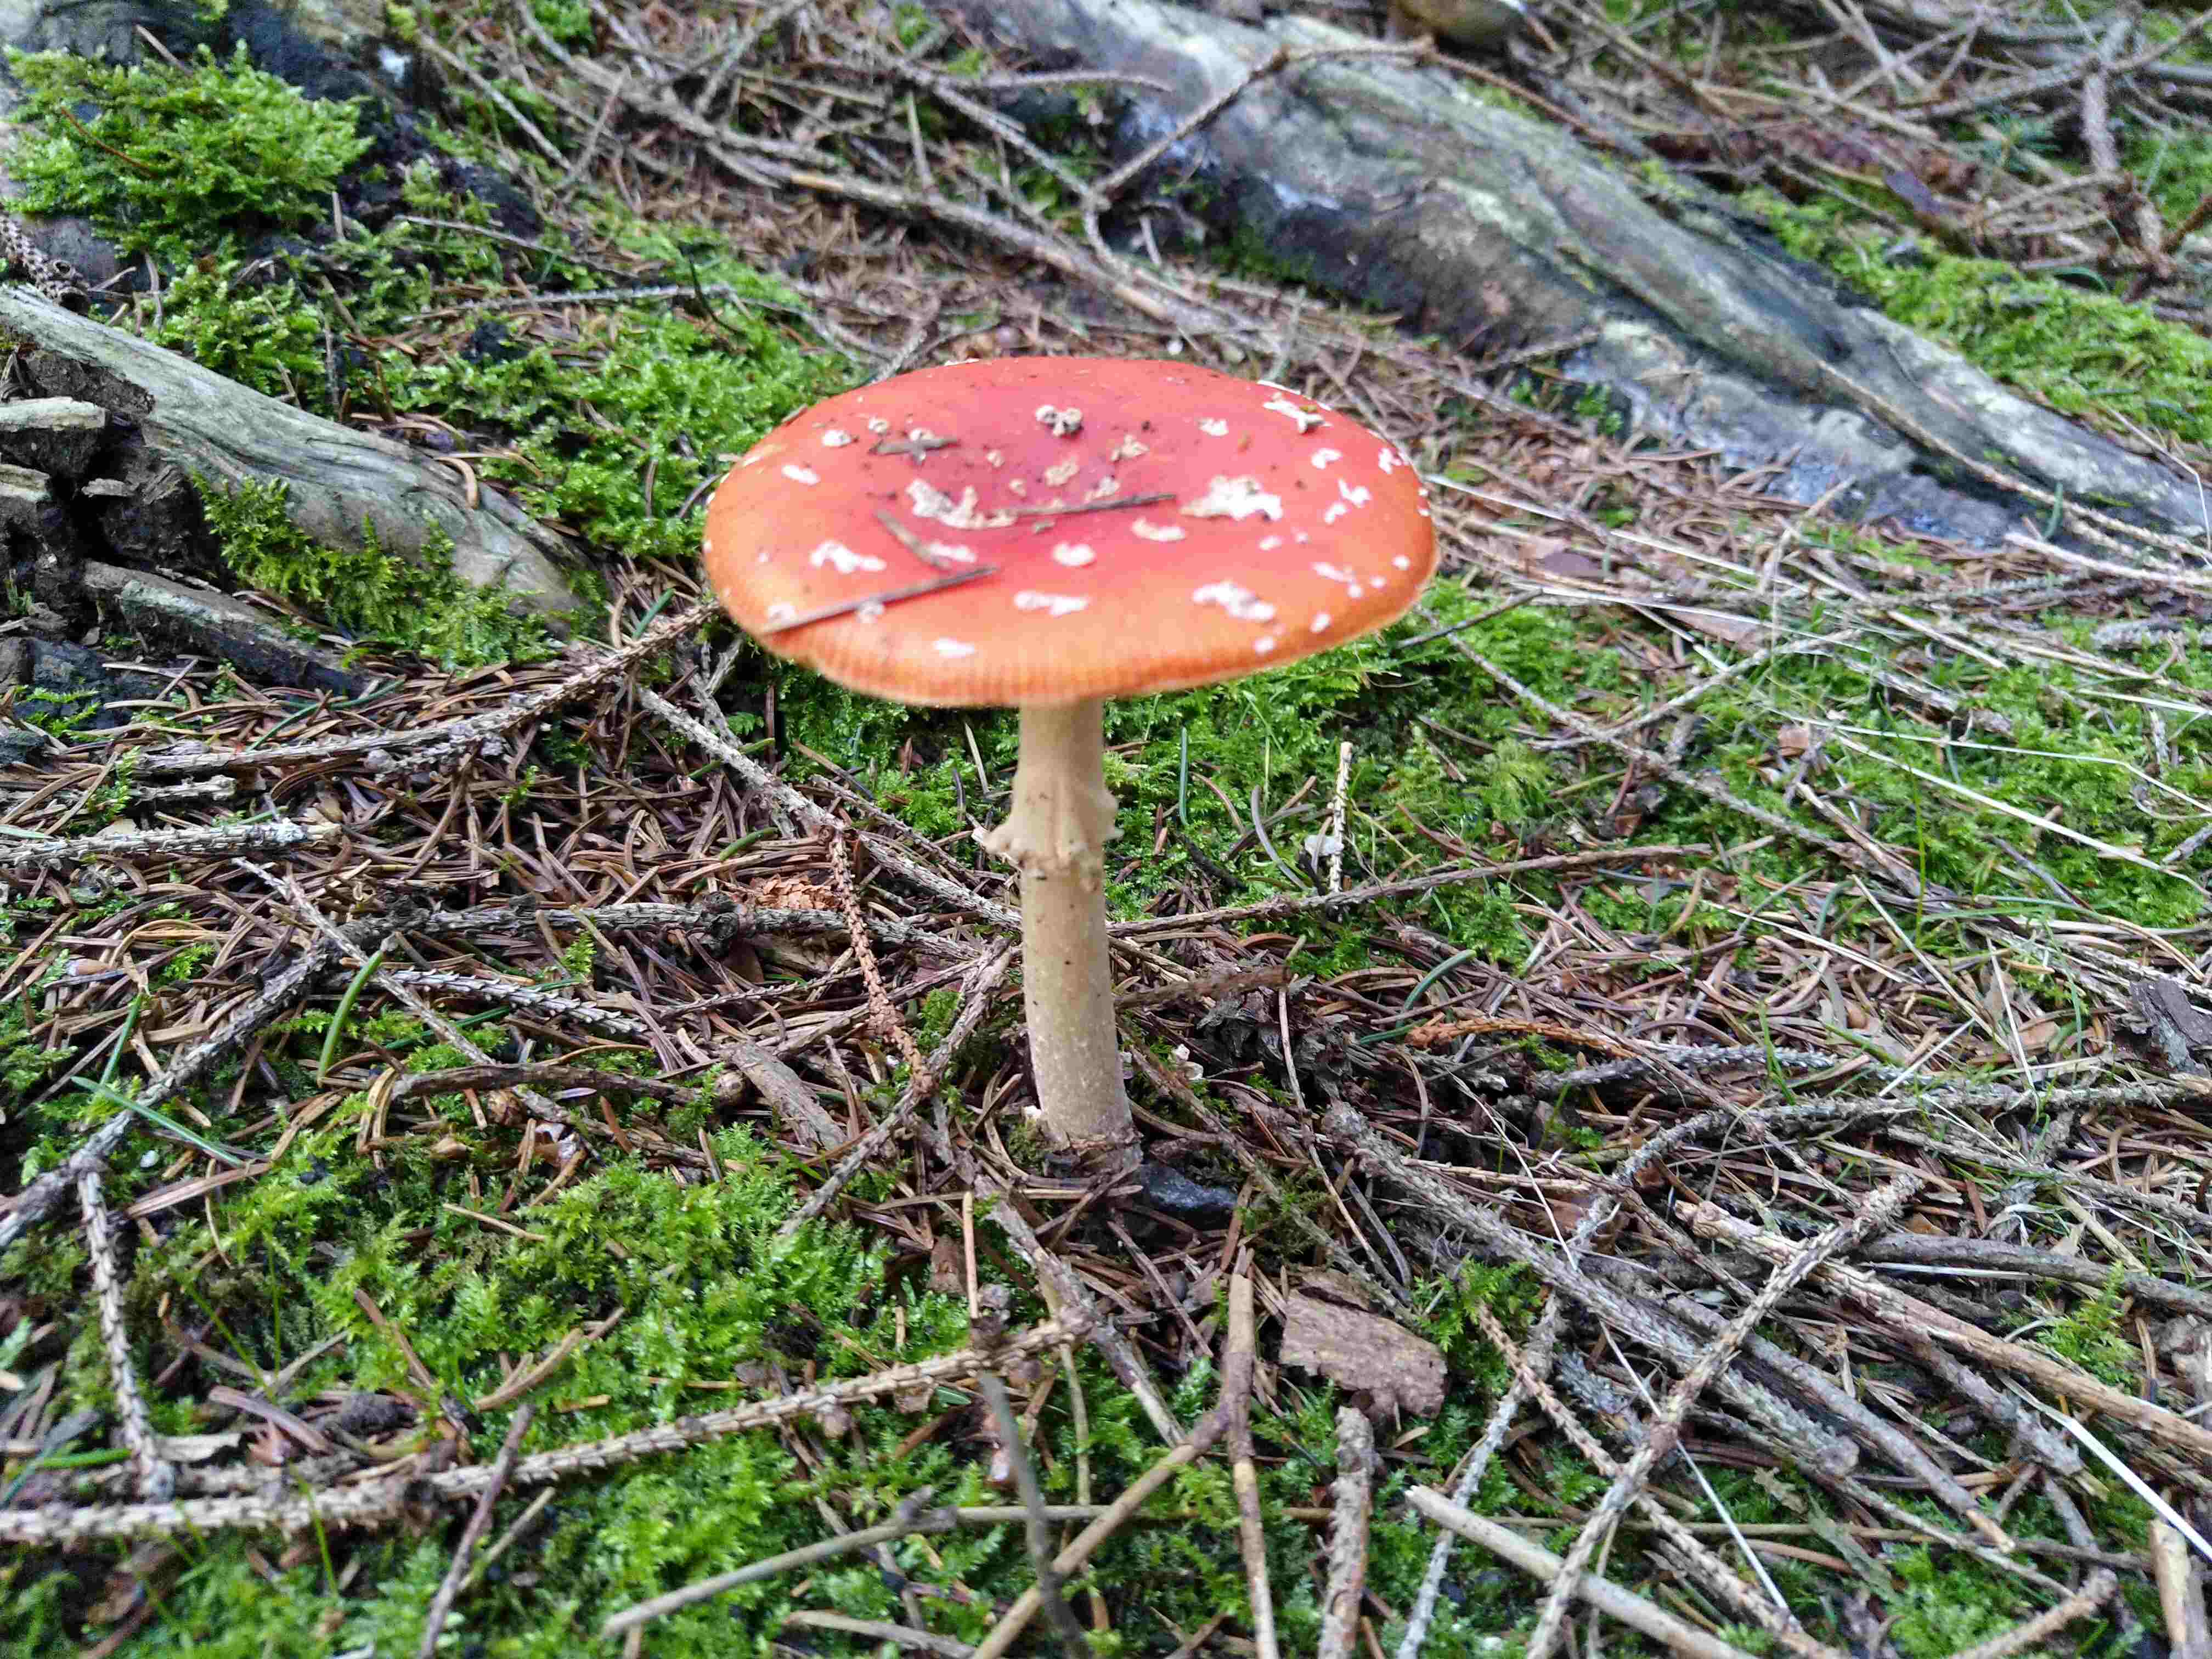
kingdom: Fungi
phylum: Basidiomycota
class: Agaricomycetes
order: Agaricales
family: Amanitaceae
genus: Amanita
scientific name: Amanita muscaria
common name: rød fluesvamp
